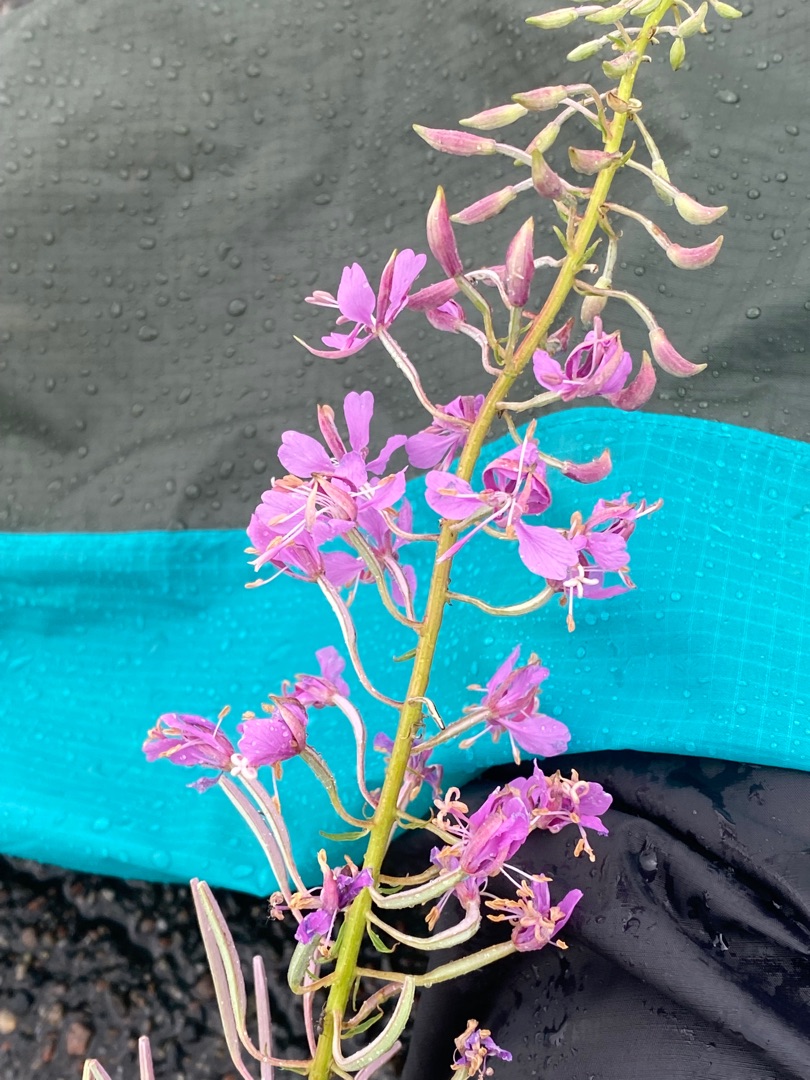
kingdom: Plantae
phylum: Tracheophyta
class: Magnoliopsida
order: Myrtales
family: Onagraceae
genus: Chamaenerion
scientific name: Chamaenerion angustifolium
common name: Gederams
